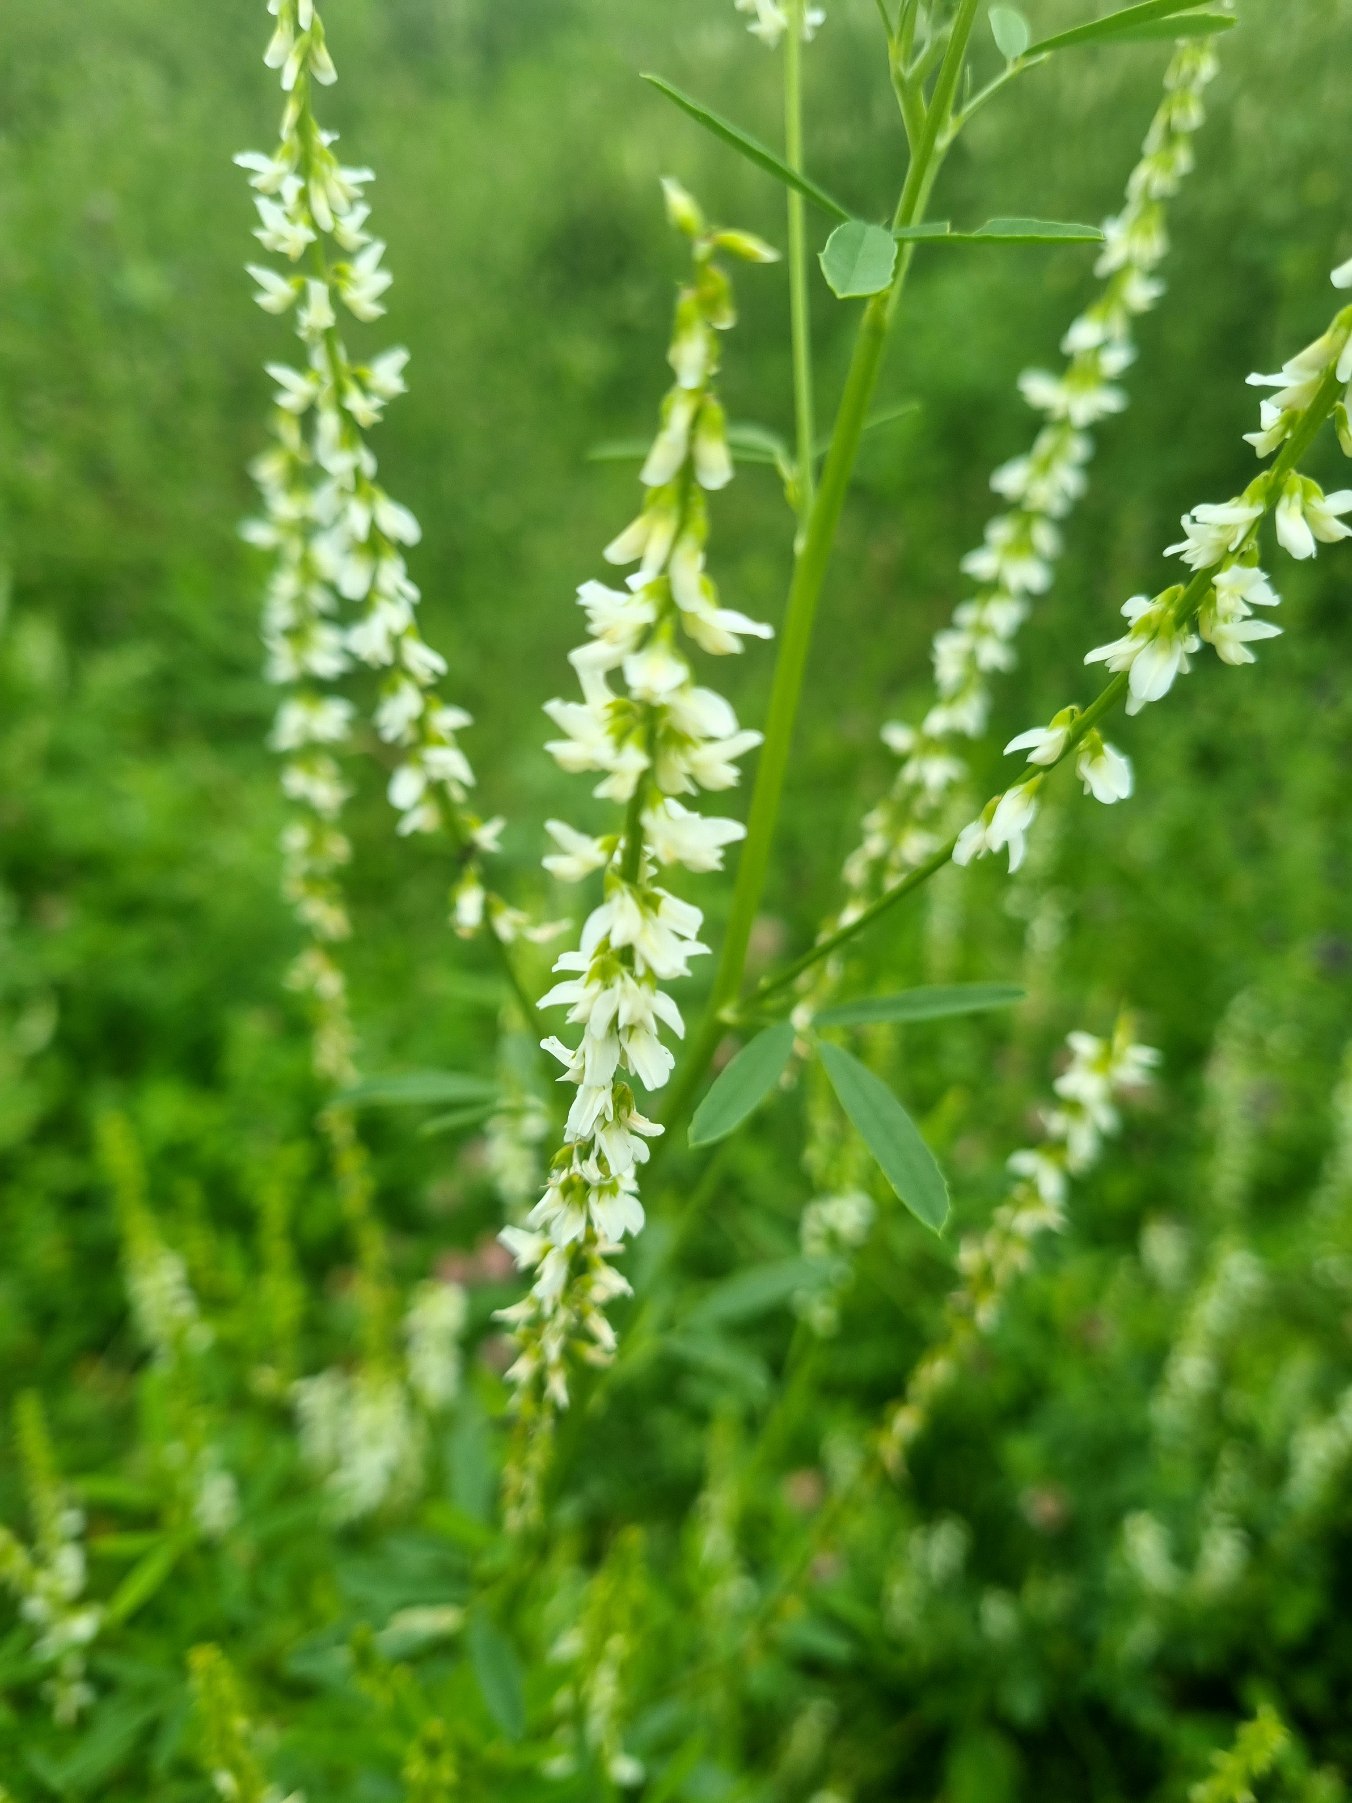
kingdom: Plantae
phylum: Tracheophyta
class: Magnoliopsida
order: Fabales
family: Fabaceae
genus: Melilotus
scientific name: Melilotus albus
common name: Hvid stenkløver
